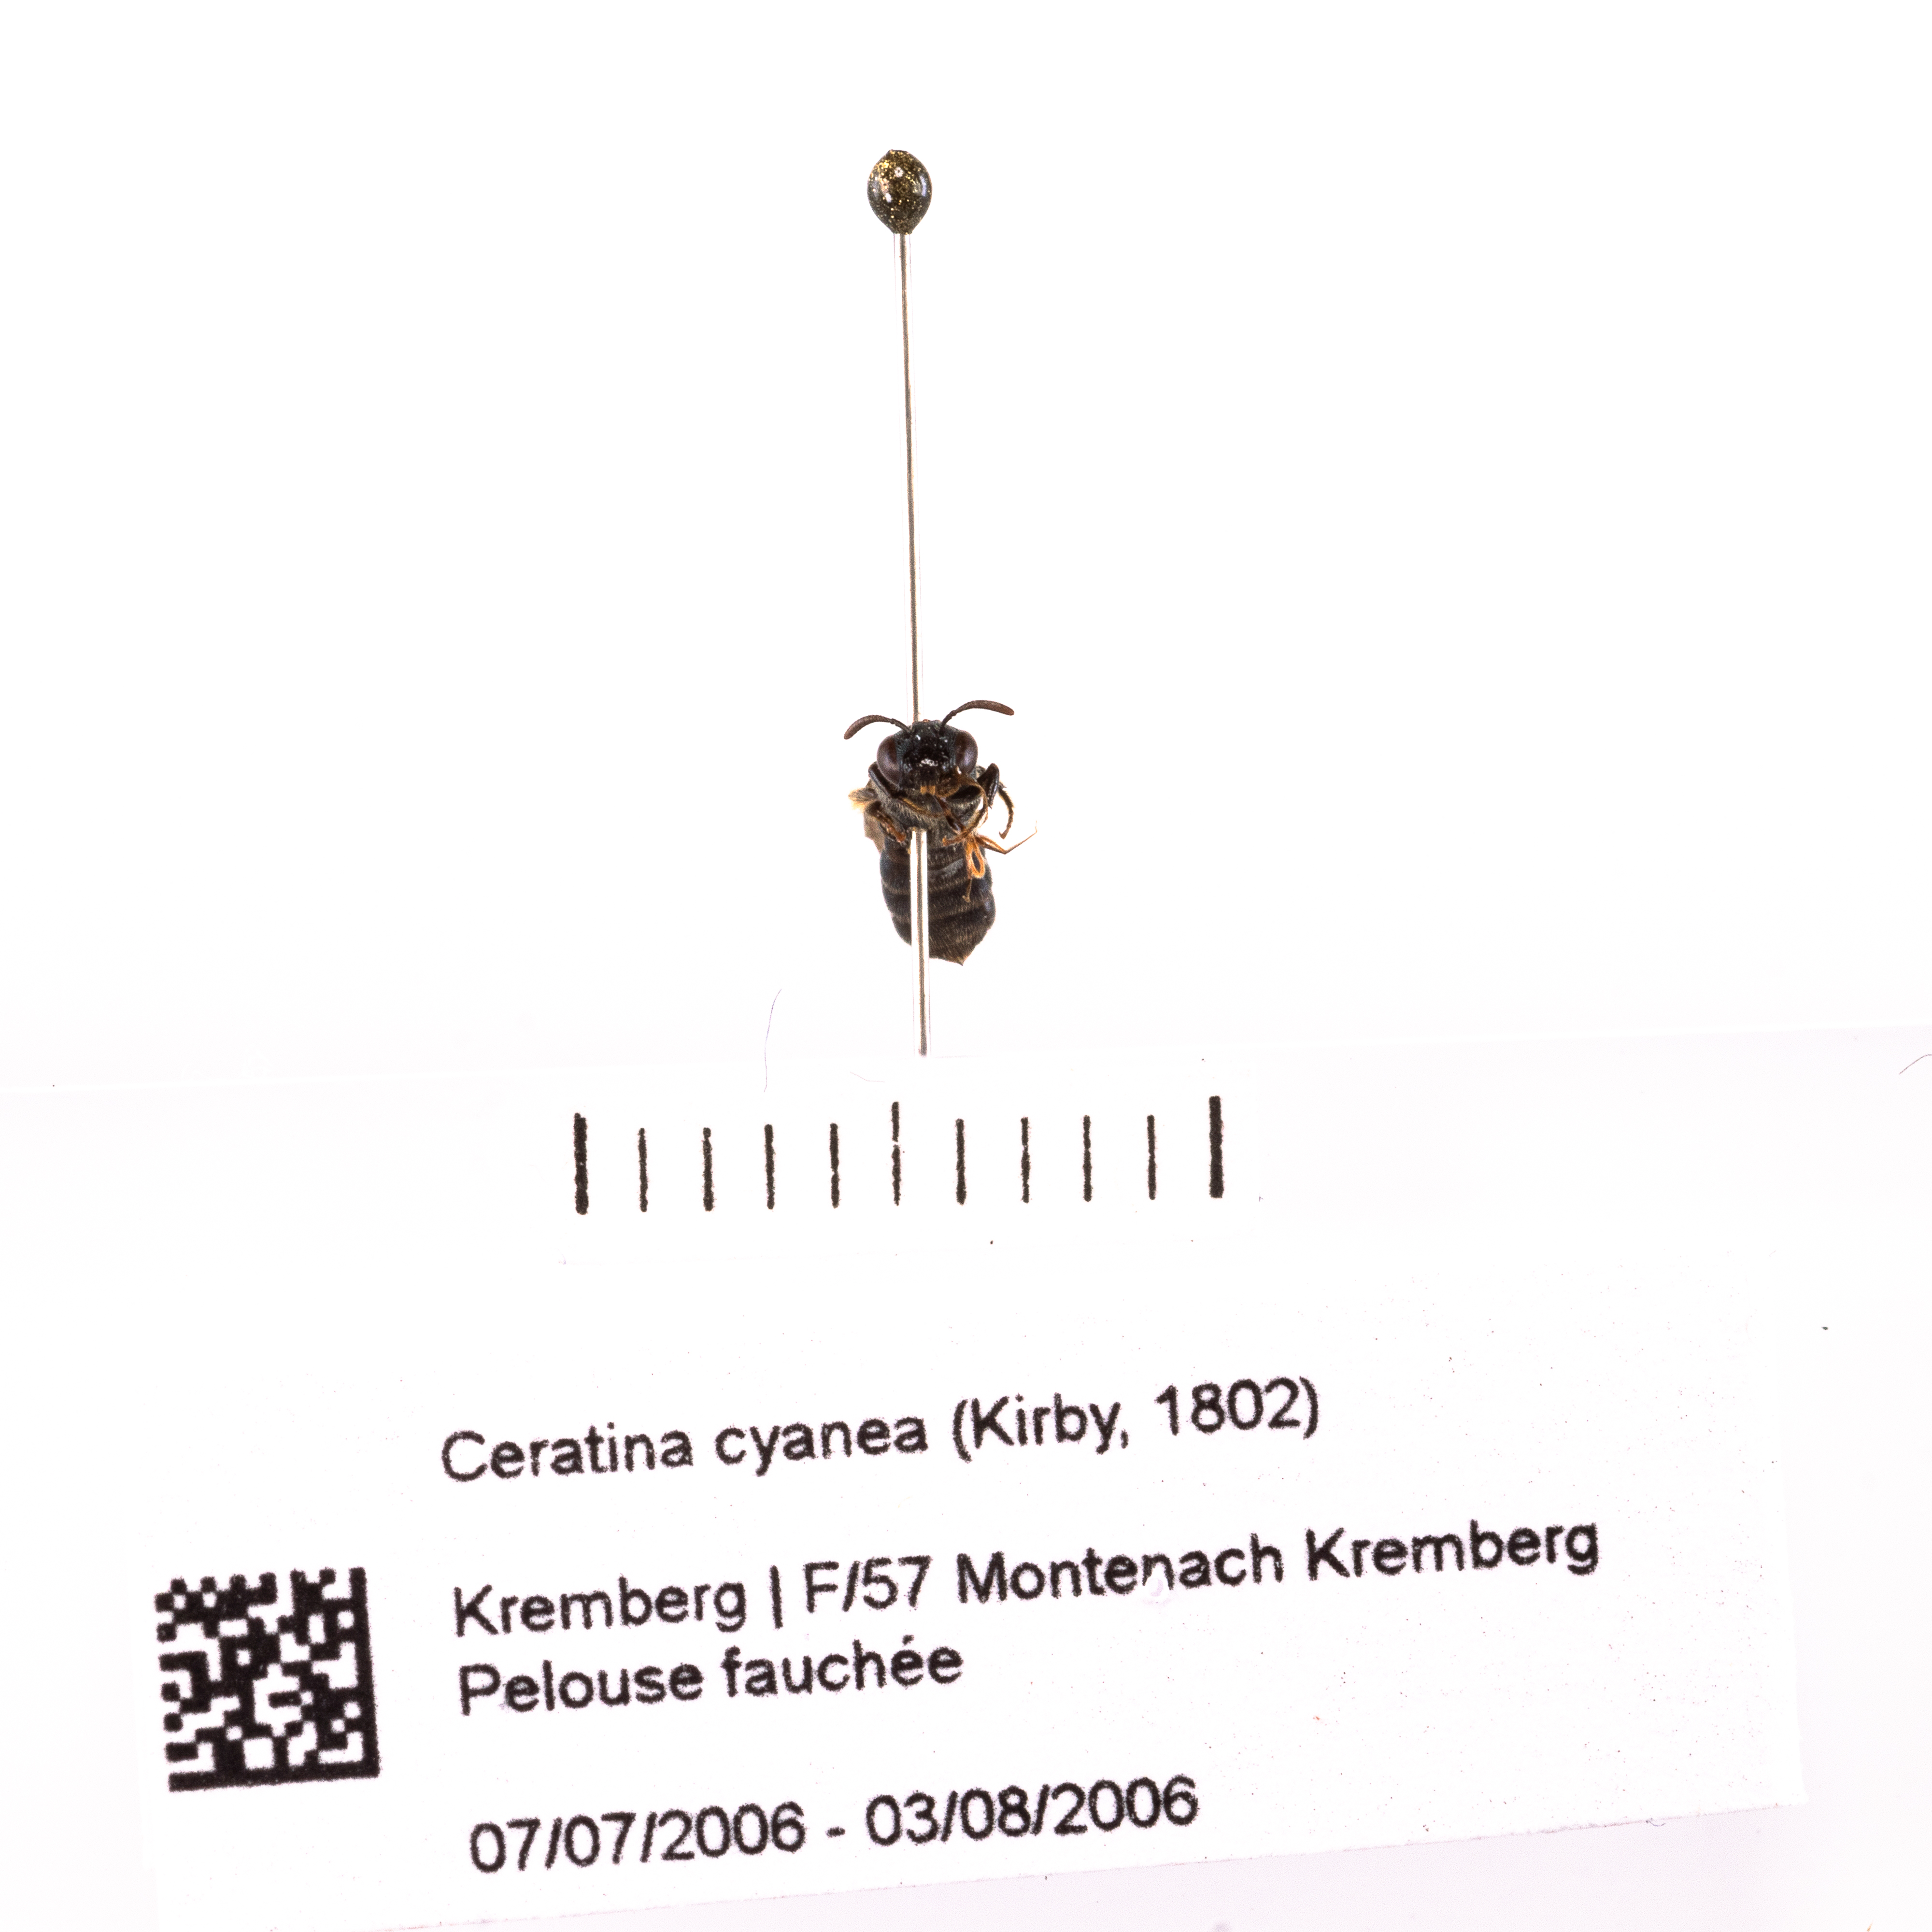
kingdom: Animalia
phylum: Arthropoda
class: Insecta
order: Hymenoptera
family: Apidae
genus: Ceratina
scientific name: Ceratina
